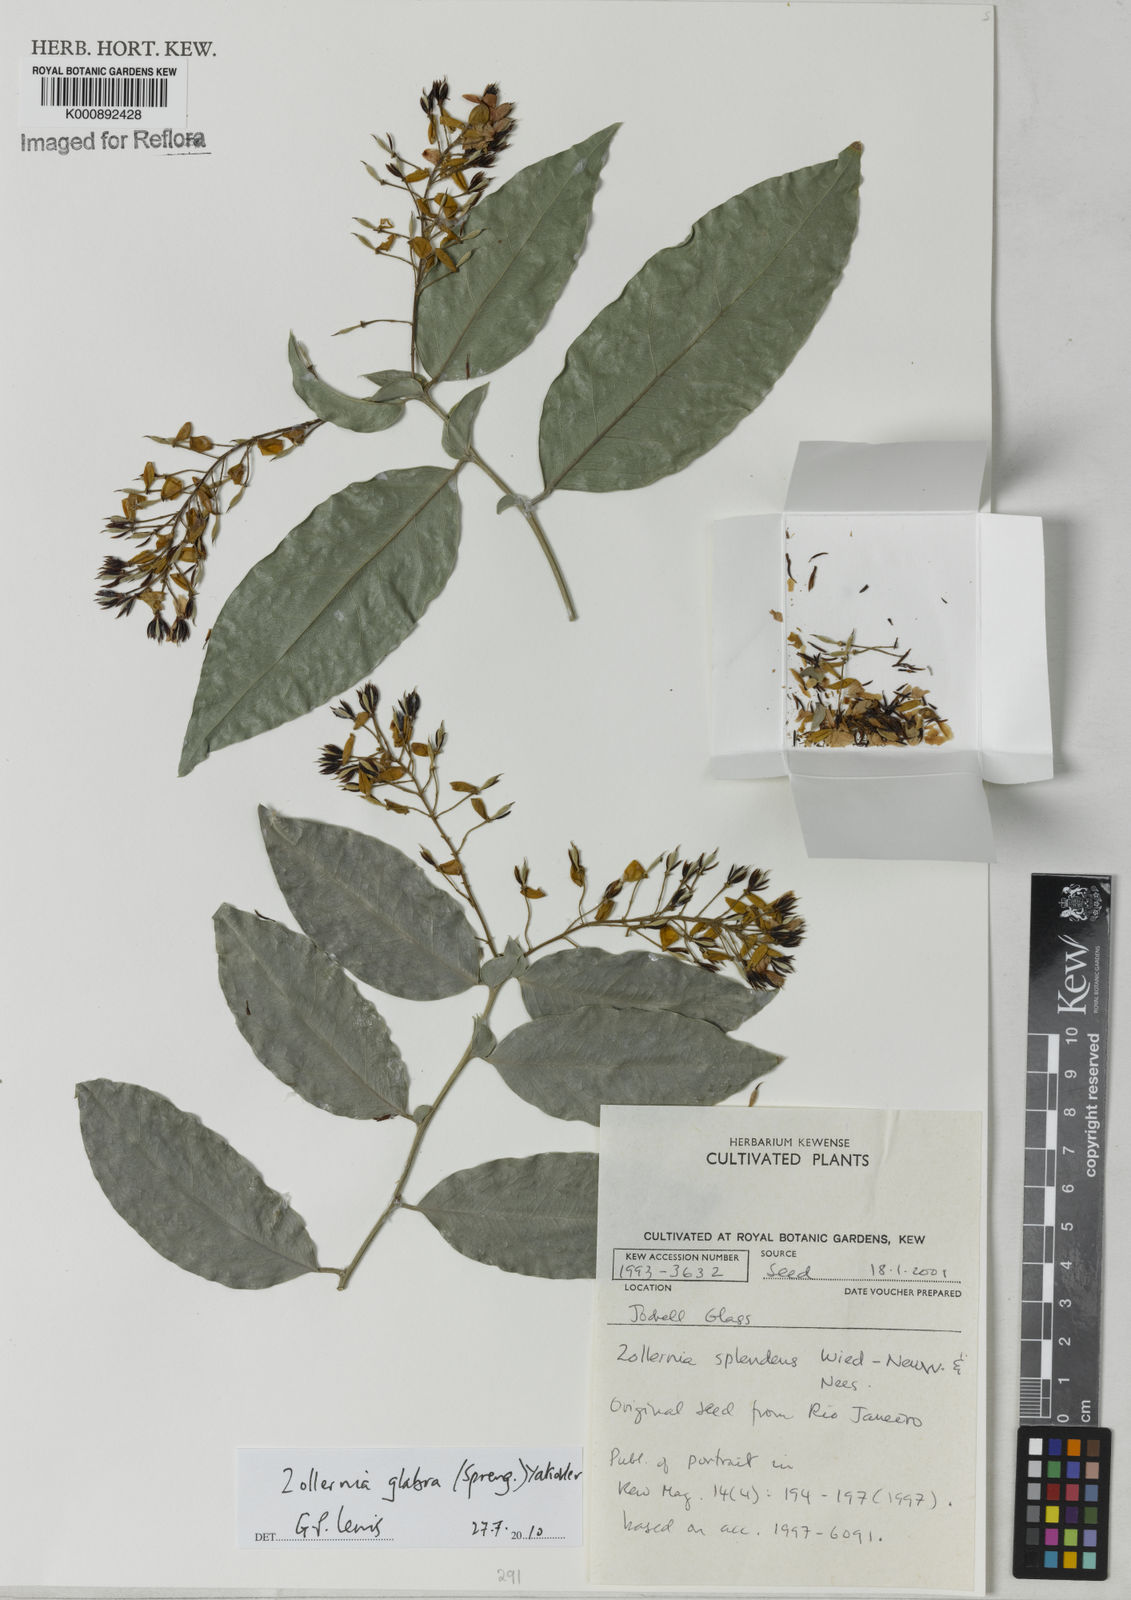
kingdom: Plantae
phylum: Tracheophyta
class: Magnoliopsida
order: Fabales
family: Fabaceae
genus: Zollernia
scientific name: Zollernia glabra
